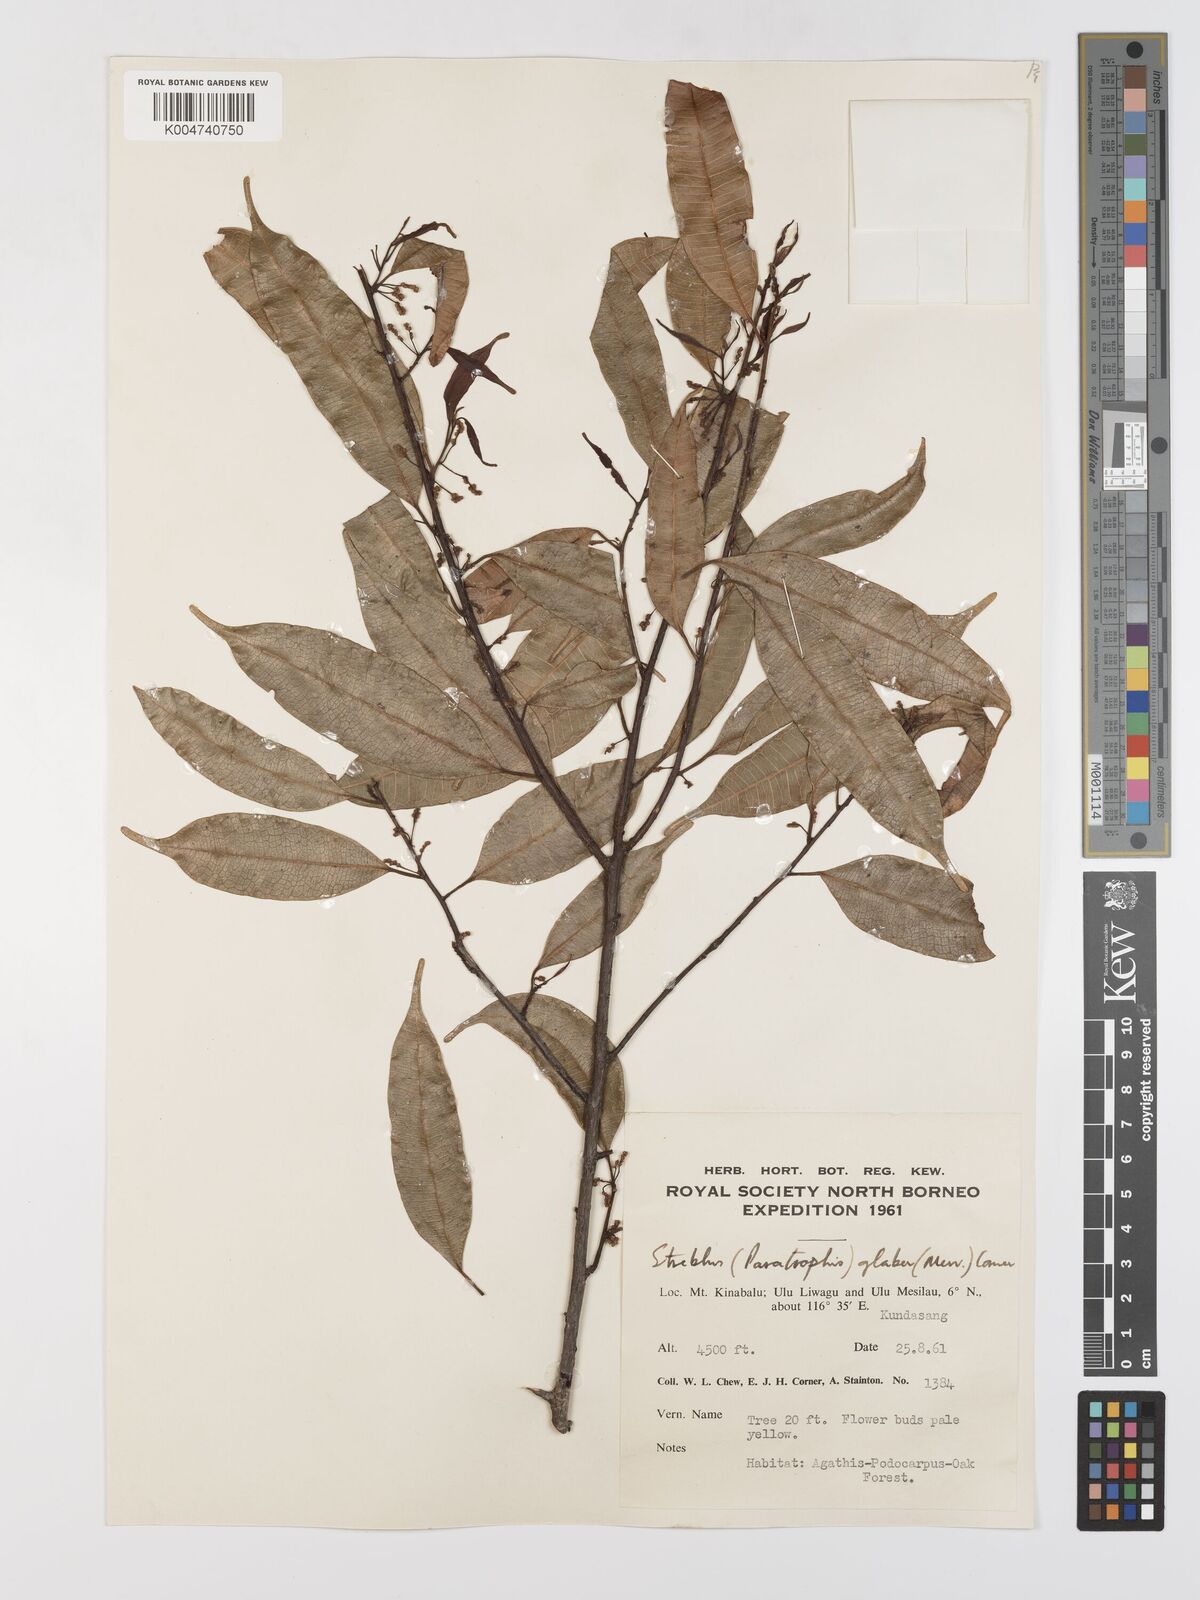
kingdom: Plantae
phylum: Tracheophyta
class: Magnoliopsida
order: Rosales
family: Moraceae
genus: Paratrophis
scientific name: Paratrophis glabra
